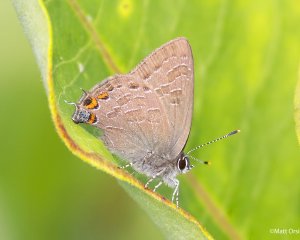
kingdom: Animalia
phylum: Arthropoda
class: Insecta
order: Lepidoptera
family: Lycaenidae
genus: Satyrium
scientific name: Satyrium liparops
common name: Striped Hairstreak
